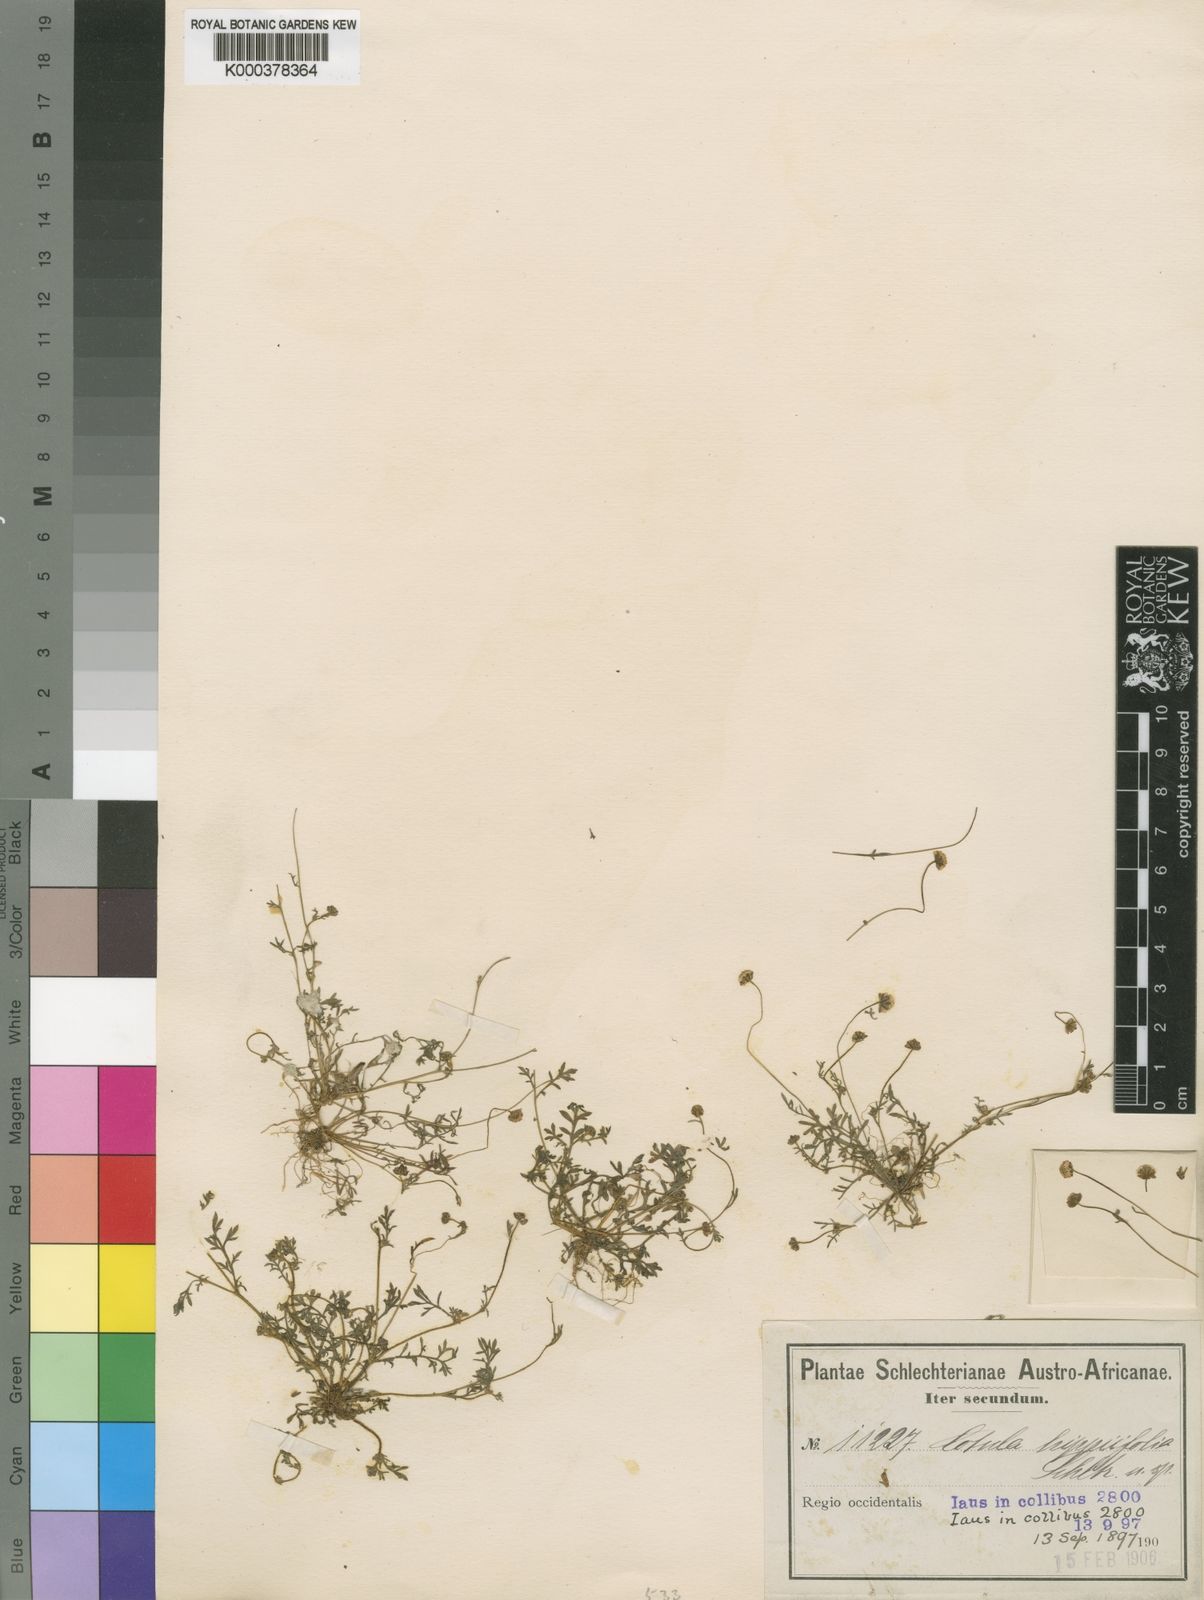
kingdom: Plantae
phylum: Tracheophyta
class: Magnoliopsida
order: Asterales
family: Asteraceae
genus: Cotula
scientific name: Cotula
